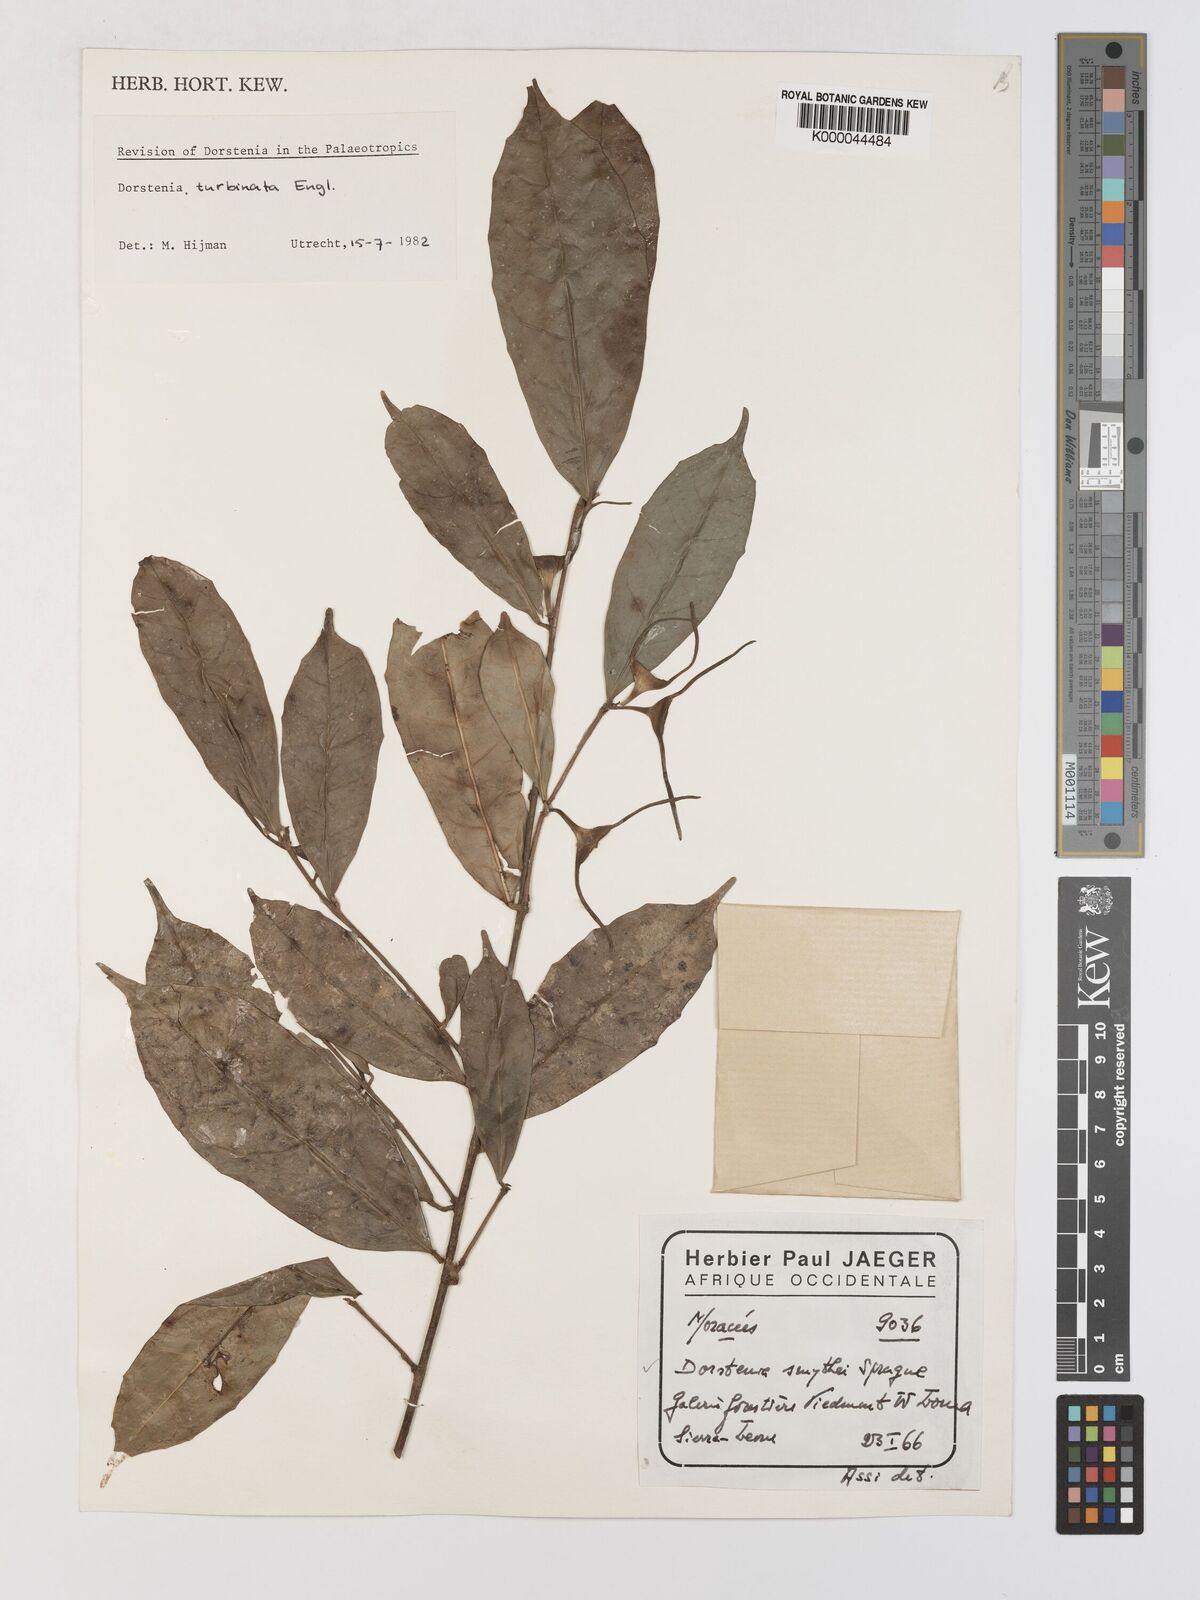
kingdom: Plantae
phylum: Tracheophyta
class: Magnoliopsida
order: Rosales
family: Moraceae
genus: Hijmania
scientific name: Hijmania turbinata
